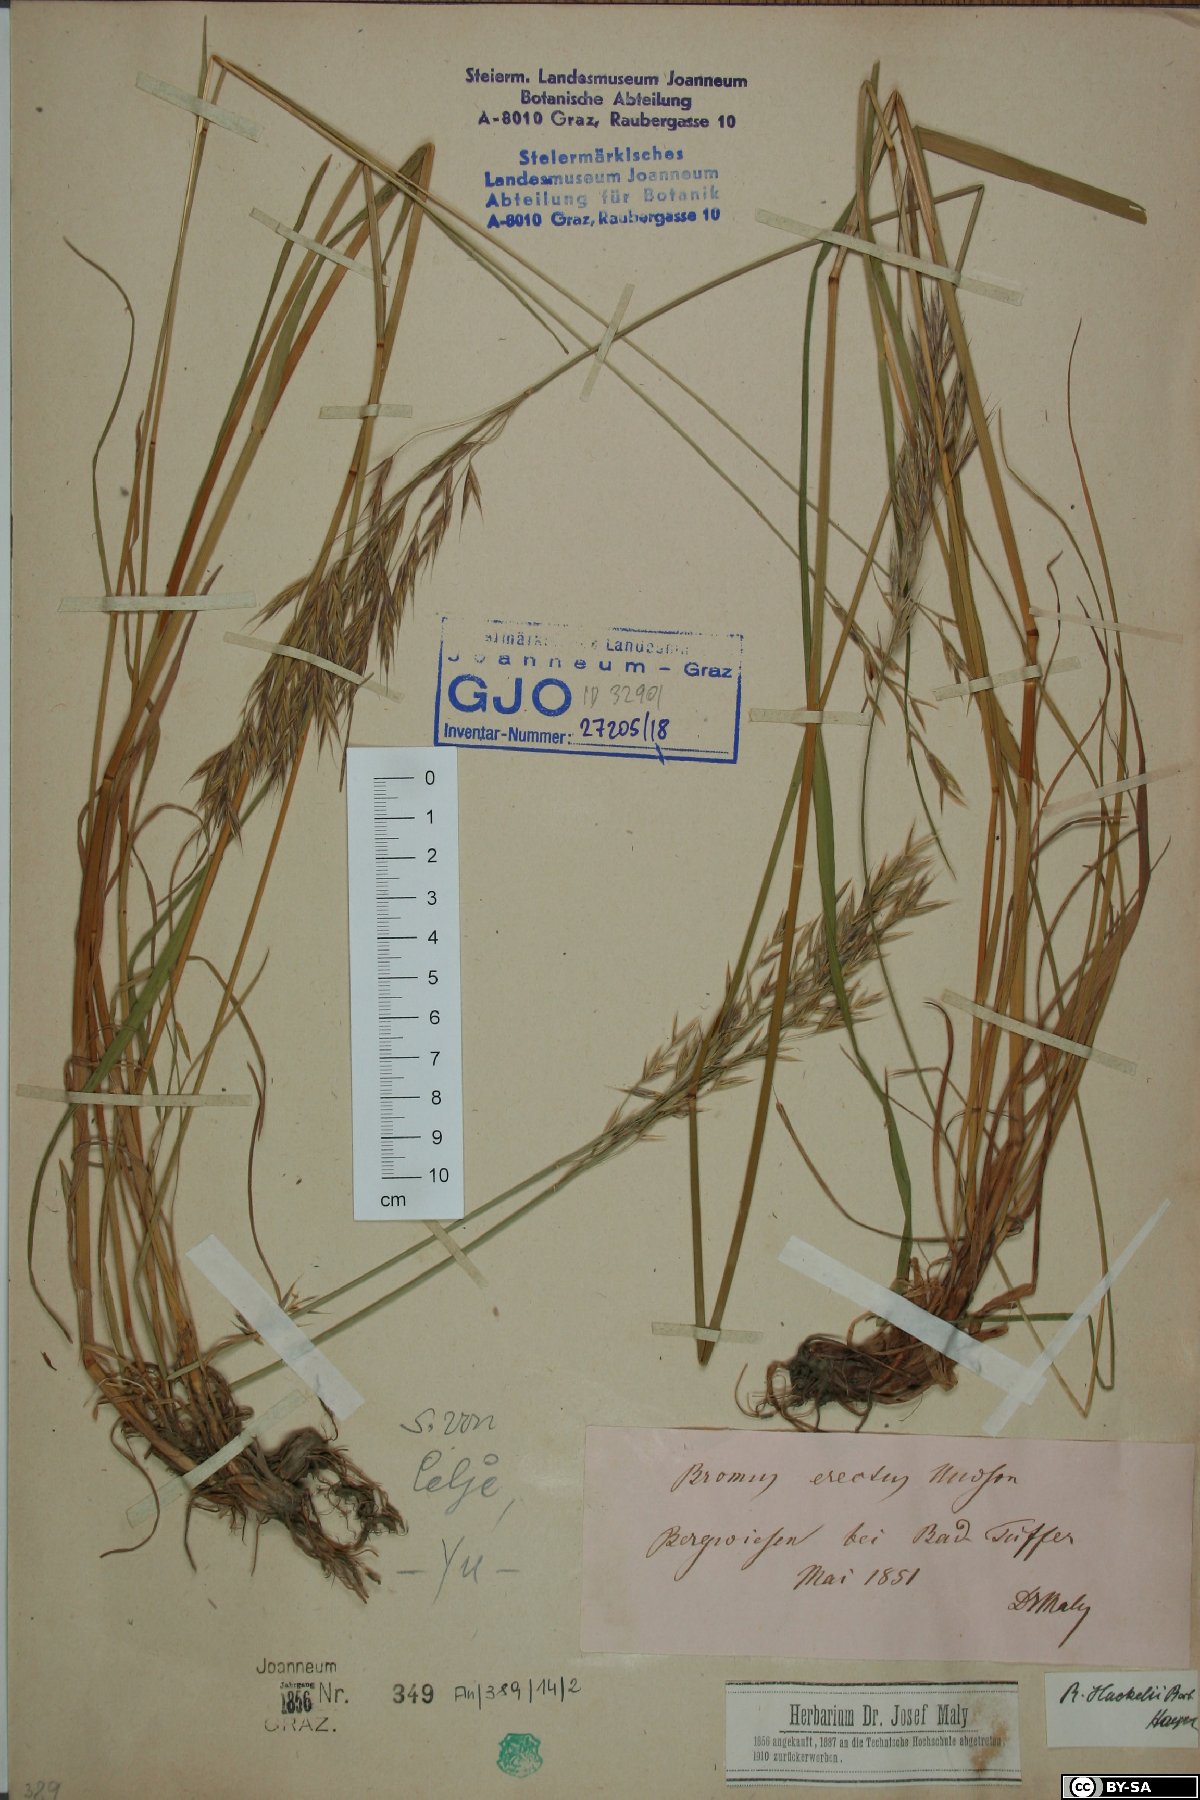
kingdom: Plantae
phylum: Tracheophyta
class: Liliopsida
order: Poales
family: Poaceae
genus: Bromus
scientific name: Bromus erectus
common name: Erect brome
